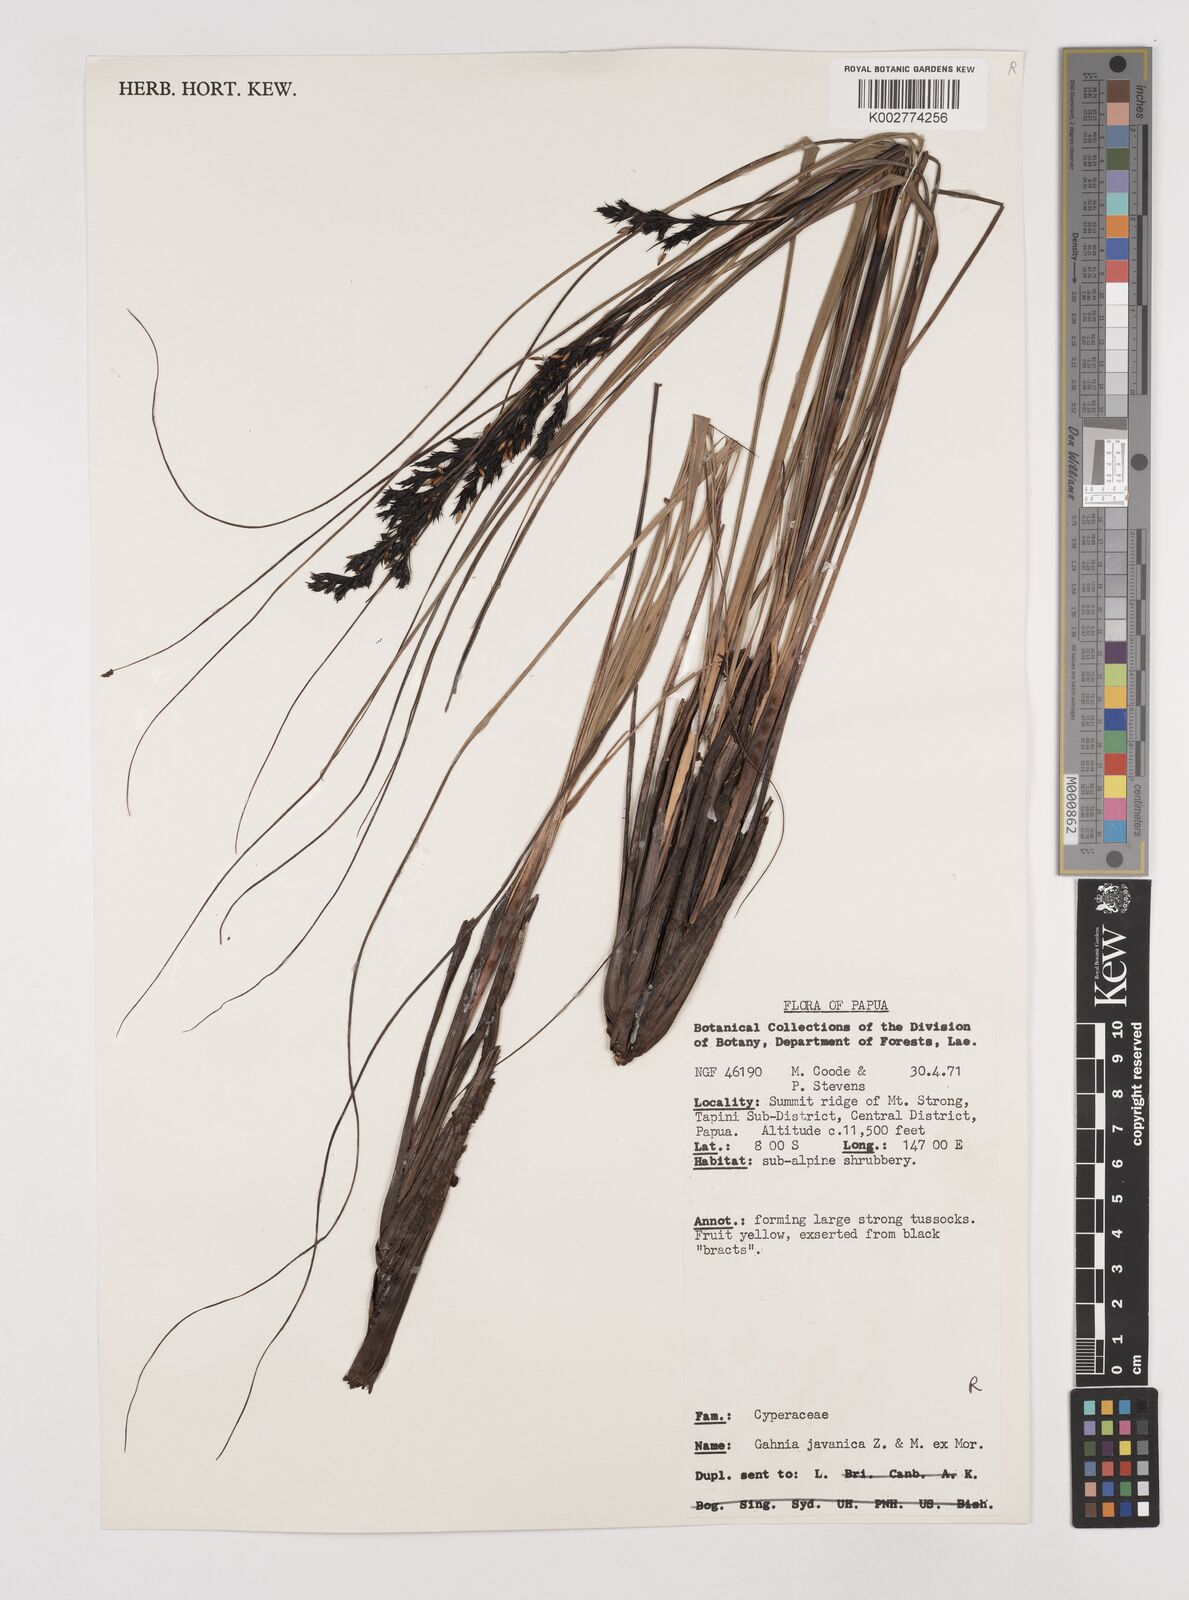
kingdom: Plantae
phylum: Tracheophyta
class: Liliopsida
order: Poales
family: Cyperaceae
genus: Gahnia
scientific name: Gahnia javanica
